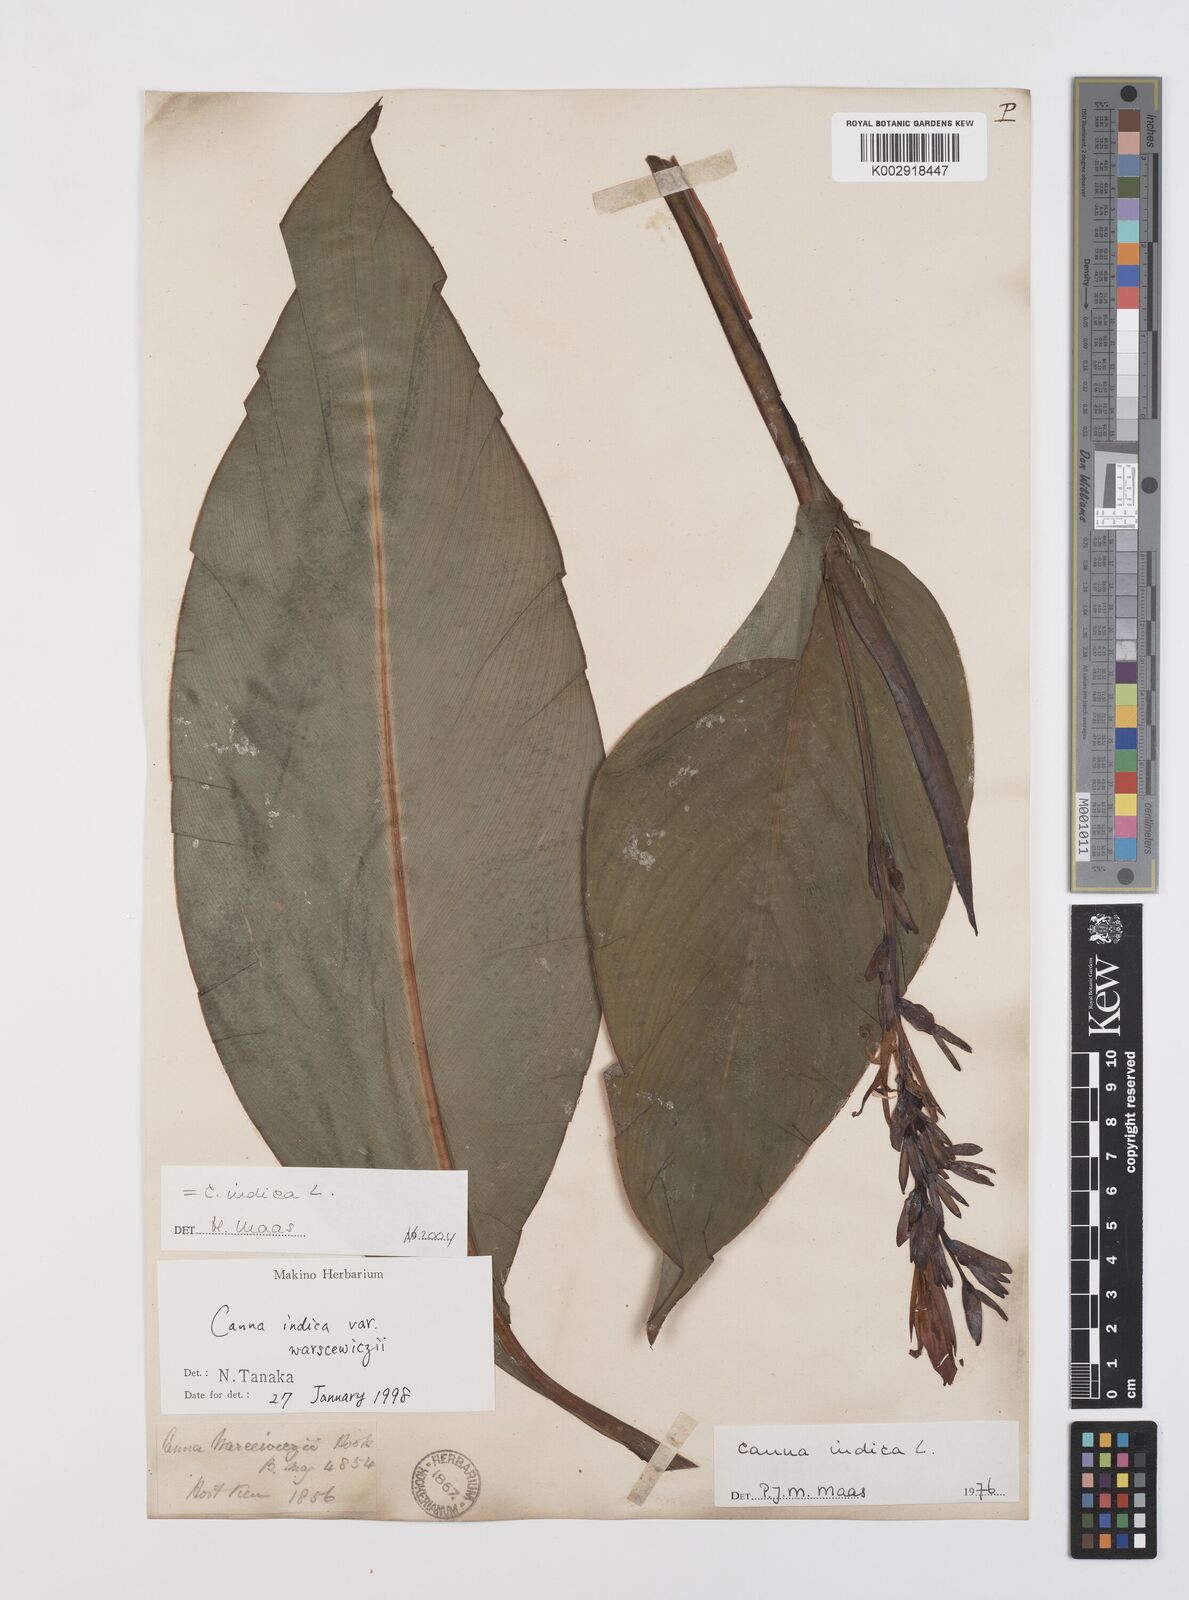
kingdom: Plantae
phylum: Tracheophyta
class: Liliopsida
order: Zingiberales
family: Cannaceae
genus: Canna
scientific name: Canna indica
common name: Indian shot
